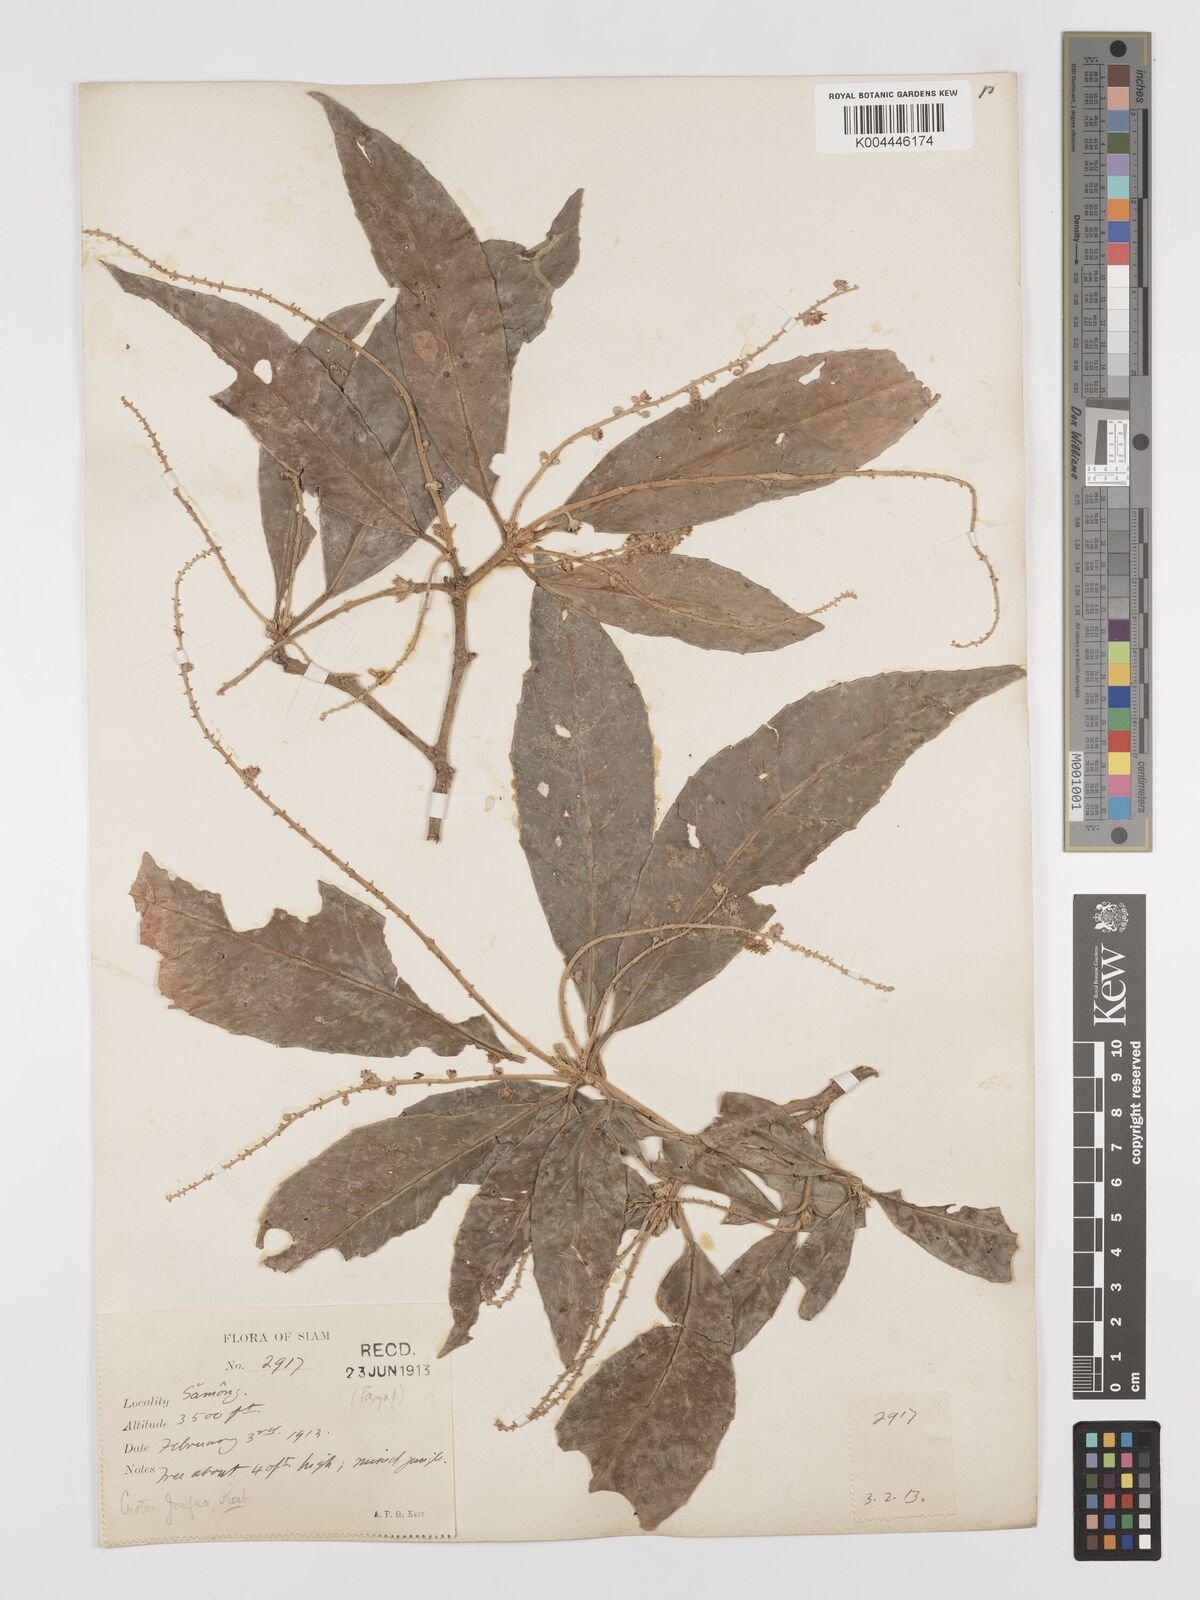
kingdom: Plantae
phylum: Tracheophyta
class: Magnoliopsida
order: Malpighiales
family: Euphorbiaceae
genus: Croton
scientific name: Croton delpyi
